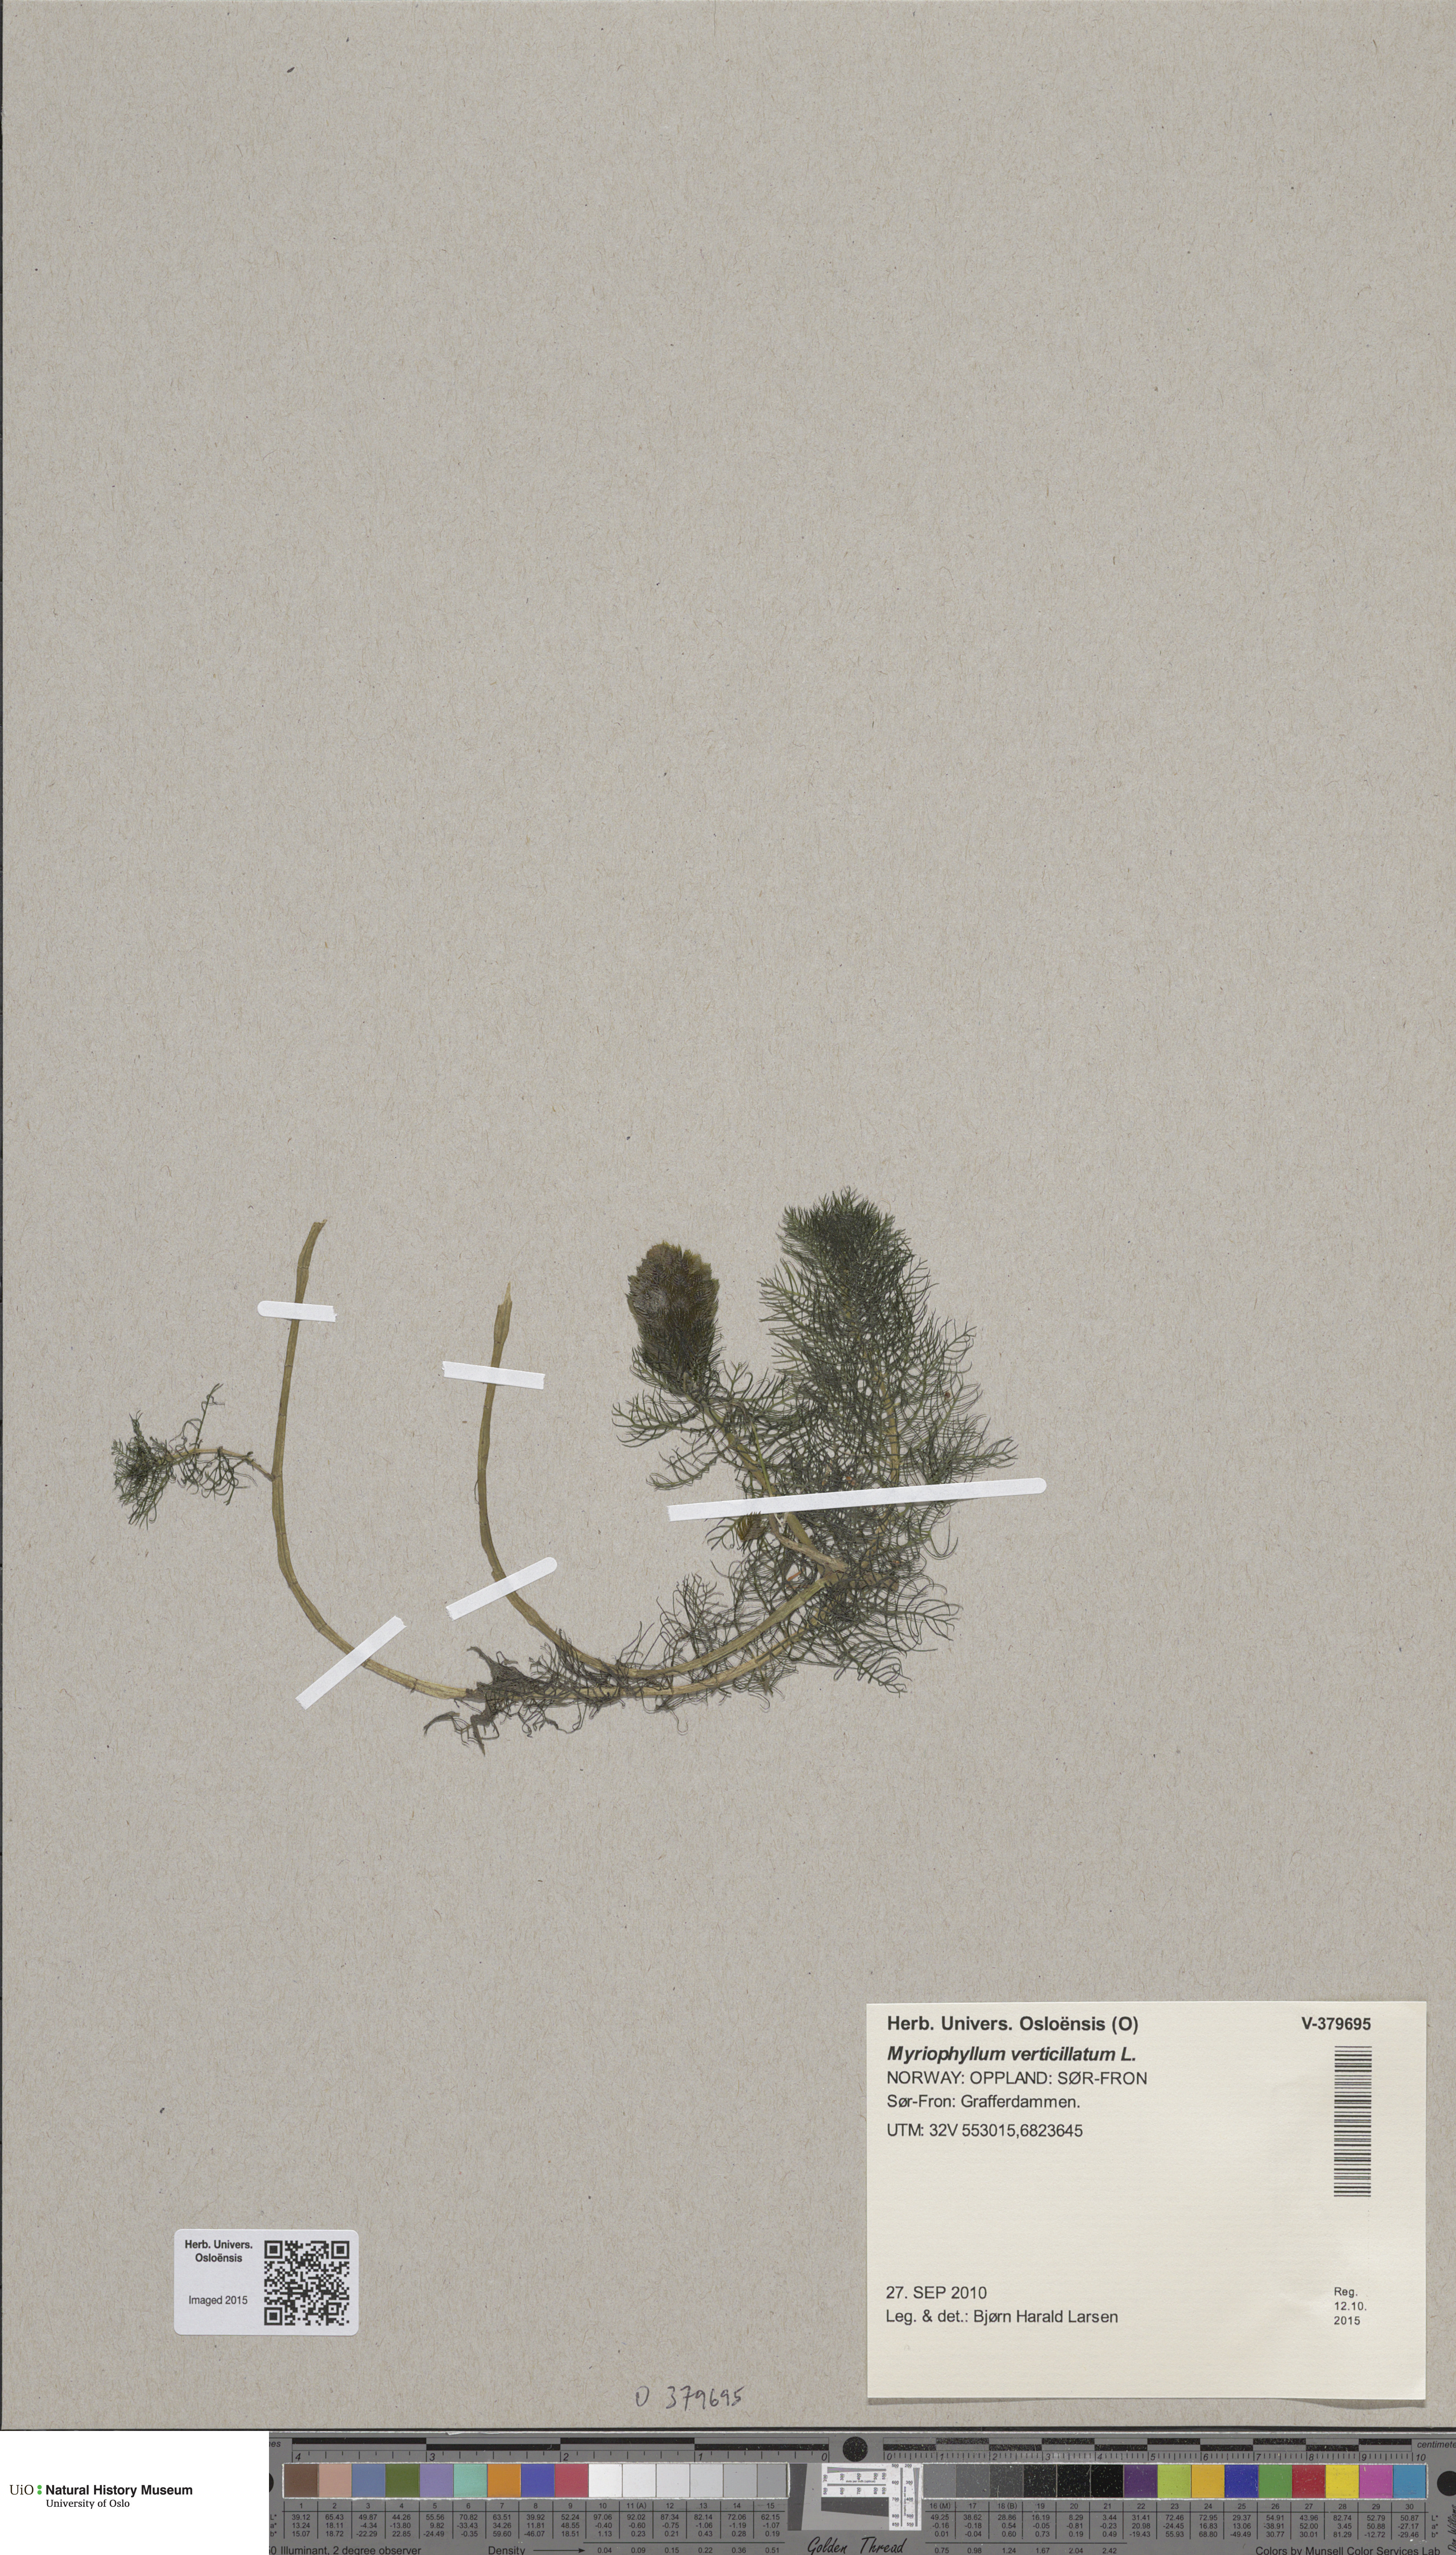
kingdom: Plantae
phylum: Tracheophyta
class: Magnoliopsida
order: Saxifragales
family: Haloragaceae
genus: Myriophyllum
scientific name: Myriophyllum sibiricum
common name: Siberian water-milfoil
